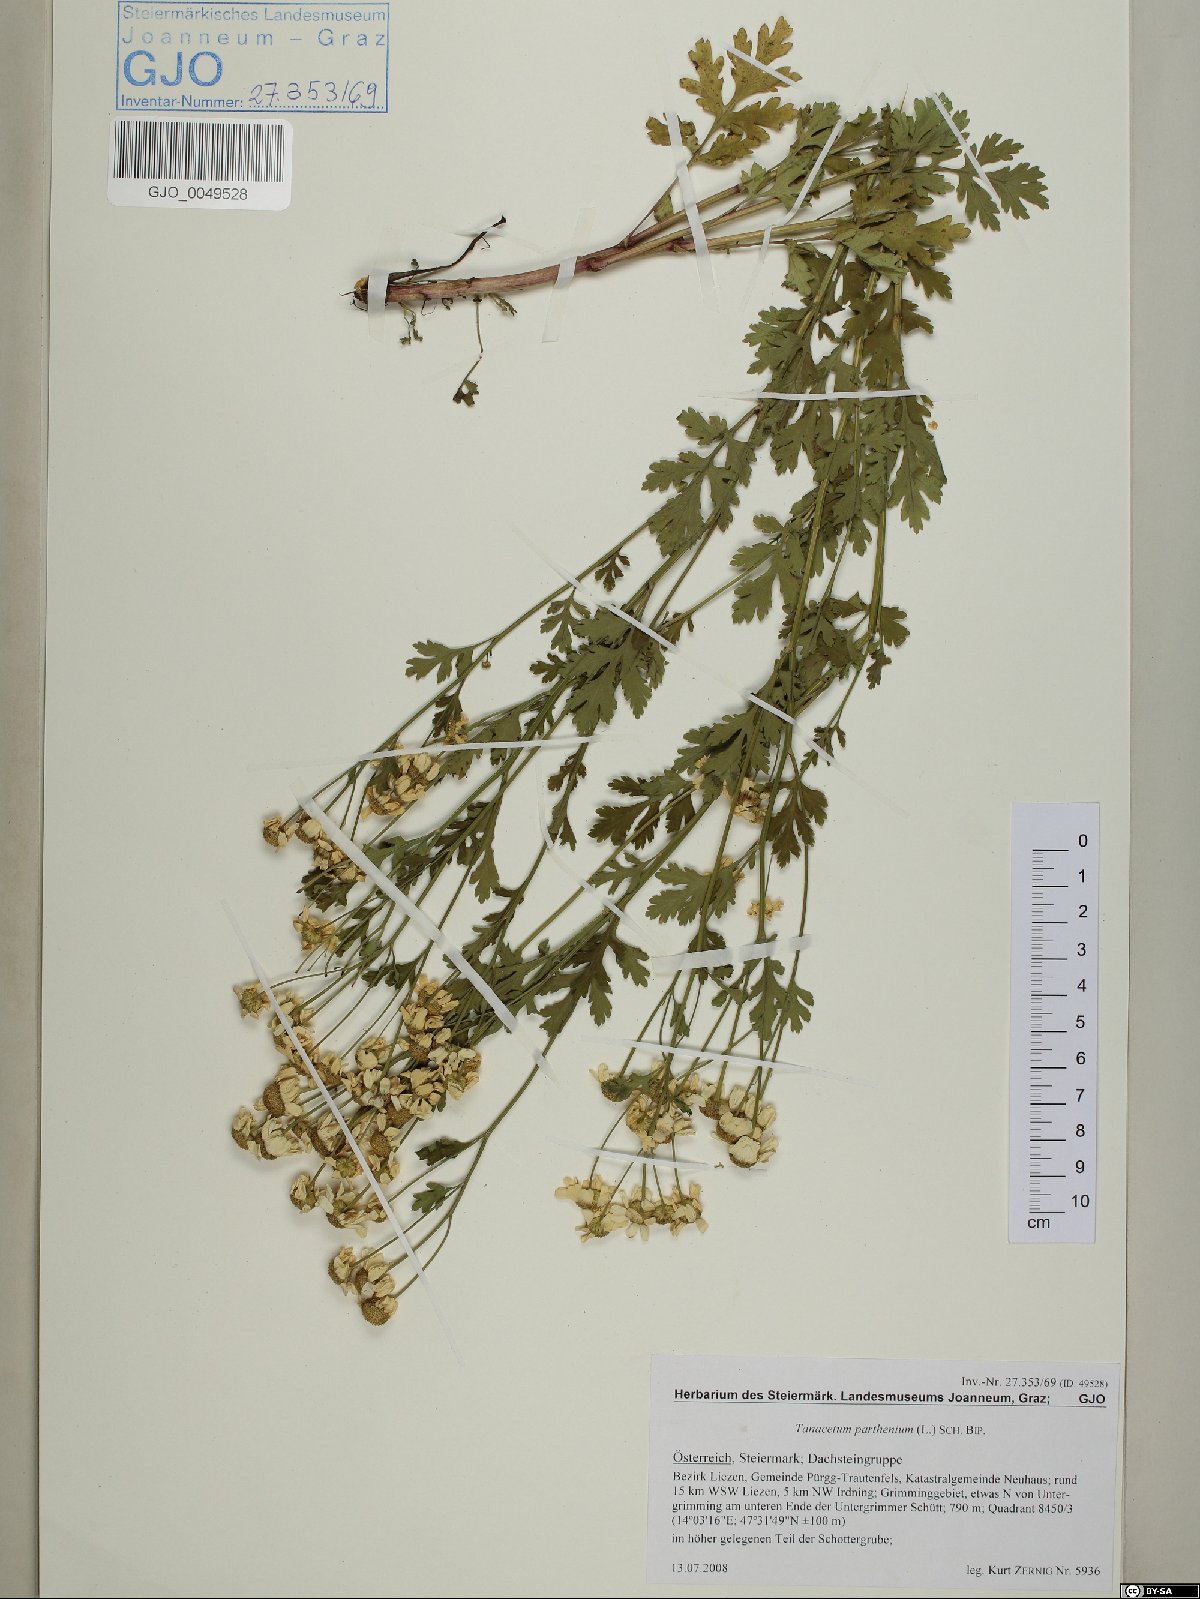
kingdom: Plantae
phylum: Tracheophyta
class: Magnoliopsida
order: Asterales
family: Asteraceae
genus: Tanacetum
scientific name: Tanacetum parthenium
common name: Feverfew
